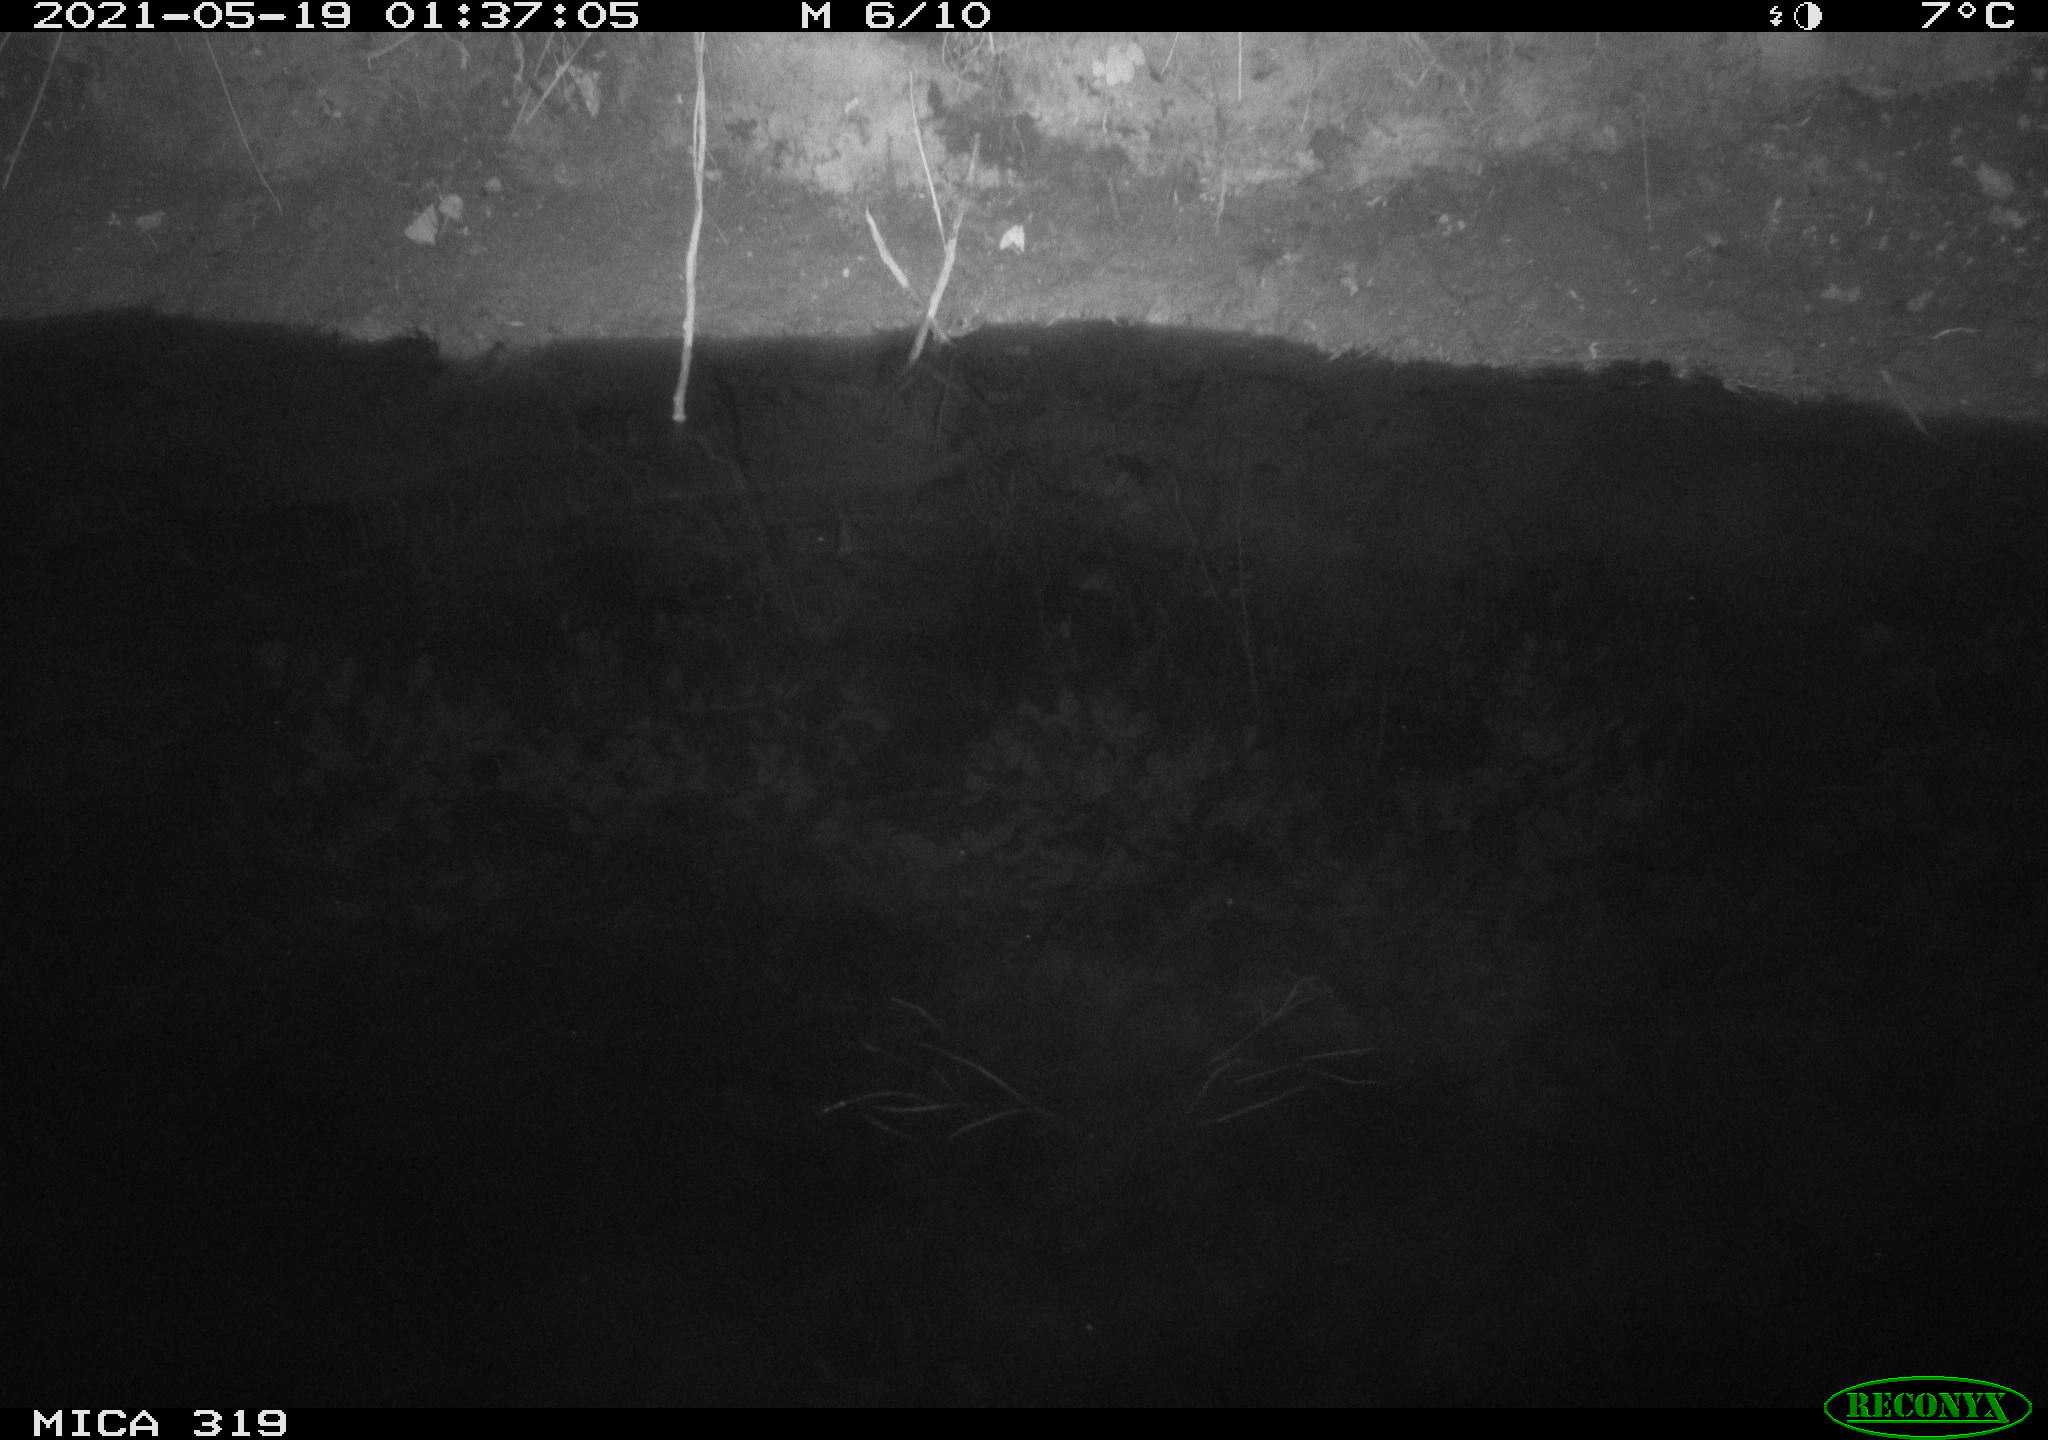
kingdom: Animalia
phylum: Chordata
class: Aves
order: Anseriformes
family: Anatidae
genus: Anas
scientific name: Anas platyrhynchos
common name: Mallard
